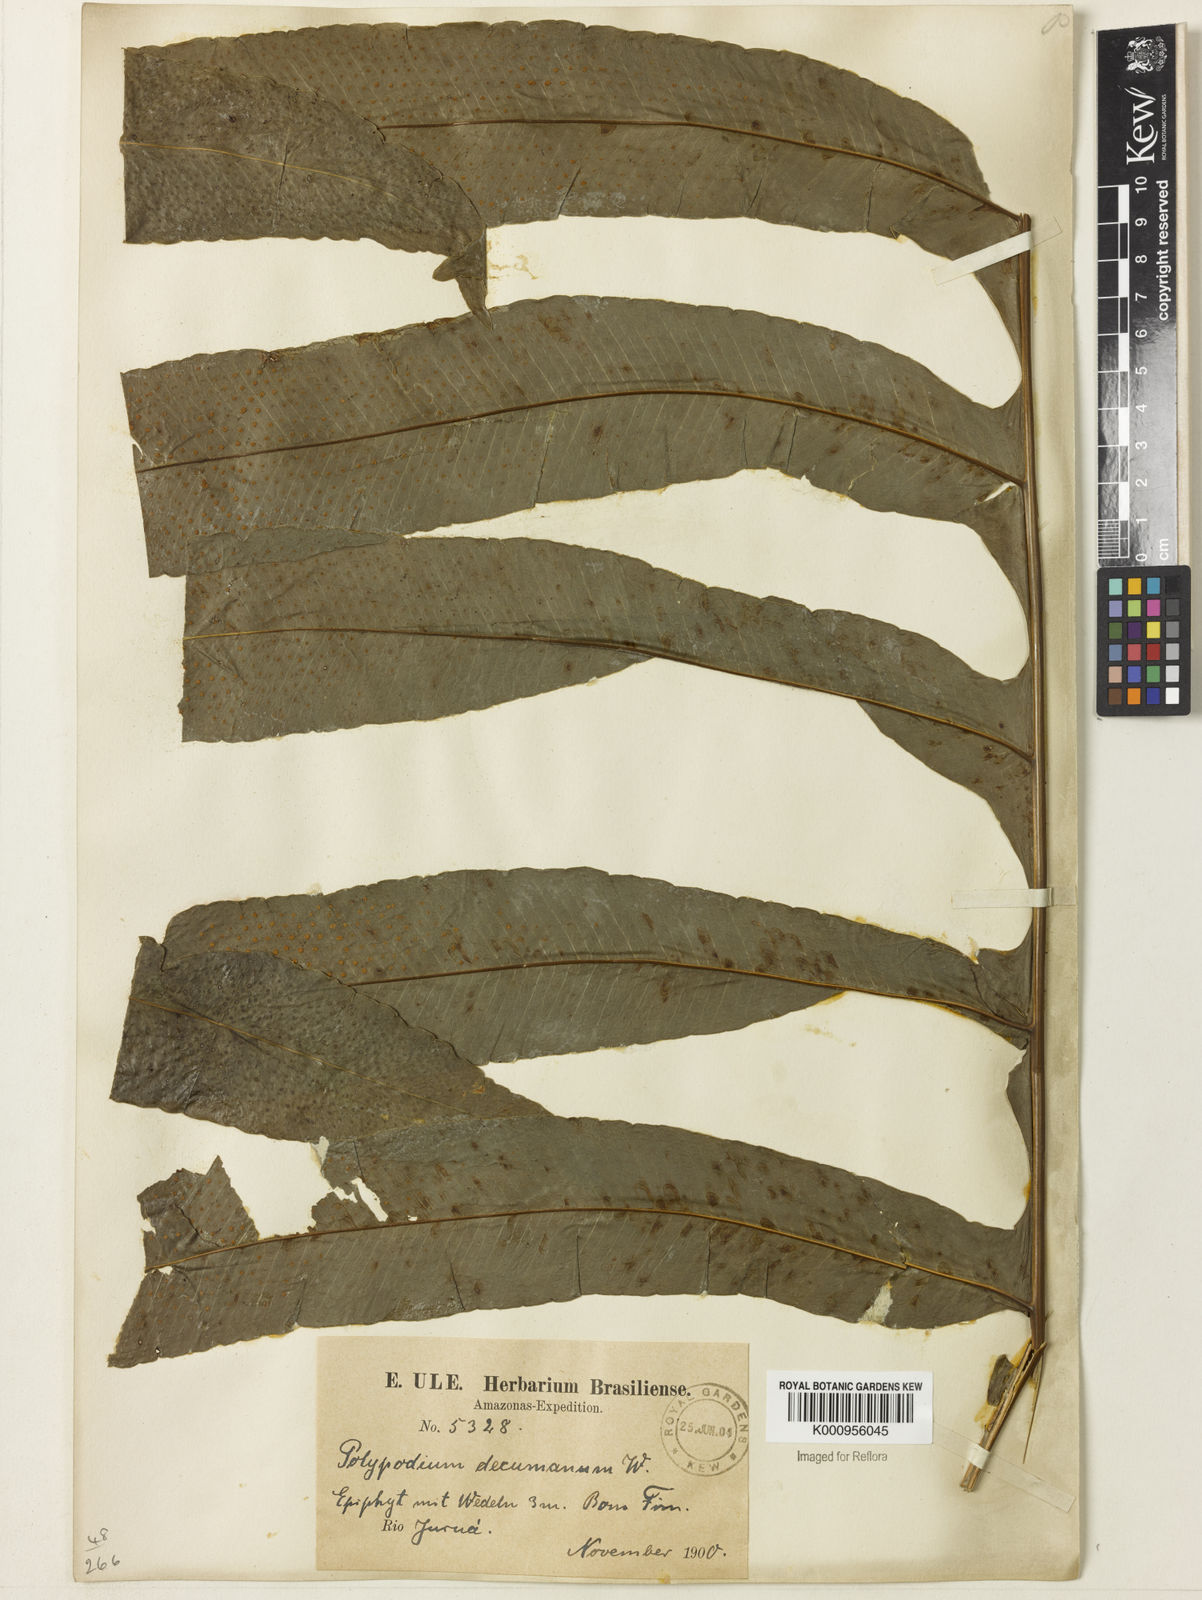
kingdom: Plantae
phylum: Tracheophyta
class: Polypodiopsida
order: Polypodiales
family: Polypodiaceae
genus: Phlebodium
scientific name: Phlebodium decumanum
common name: Golden polypod
